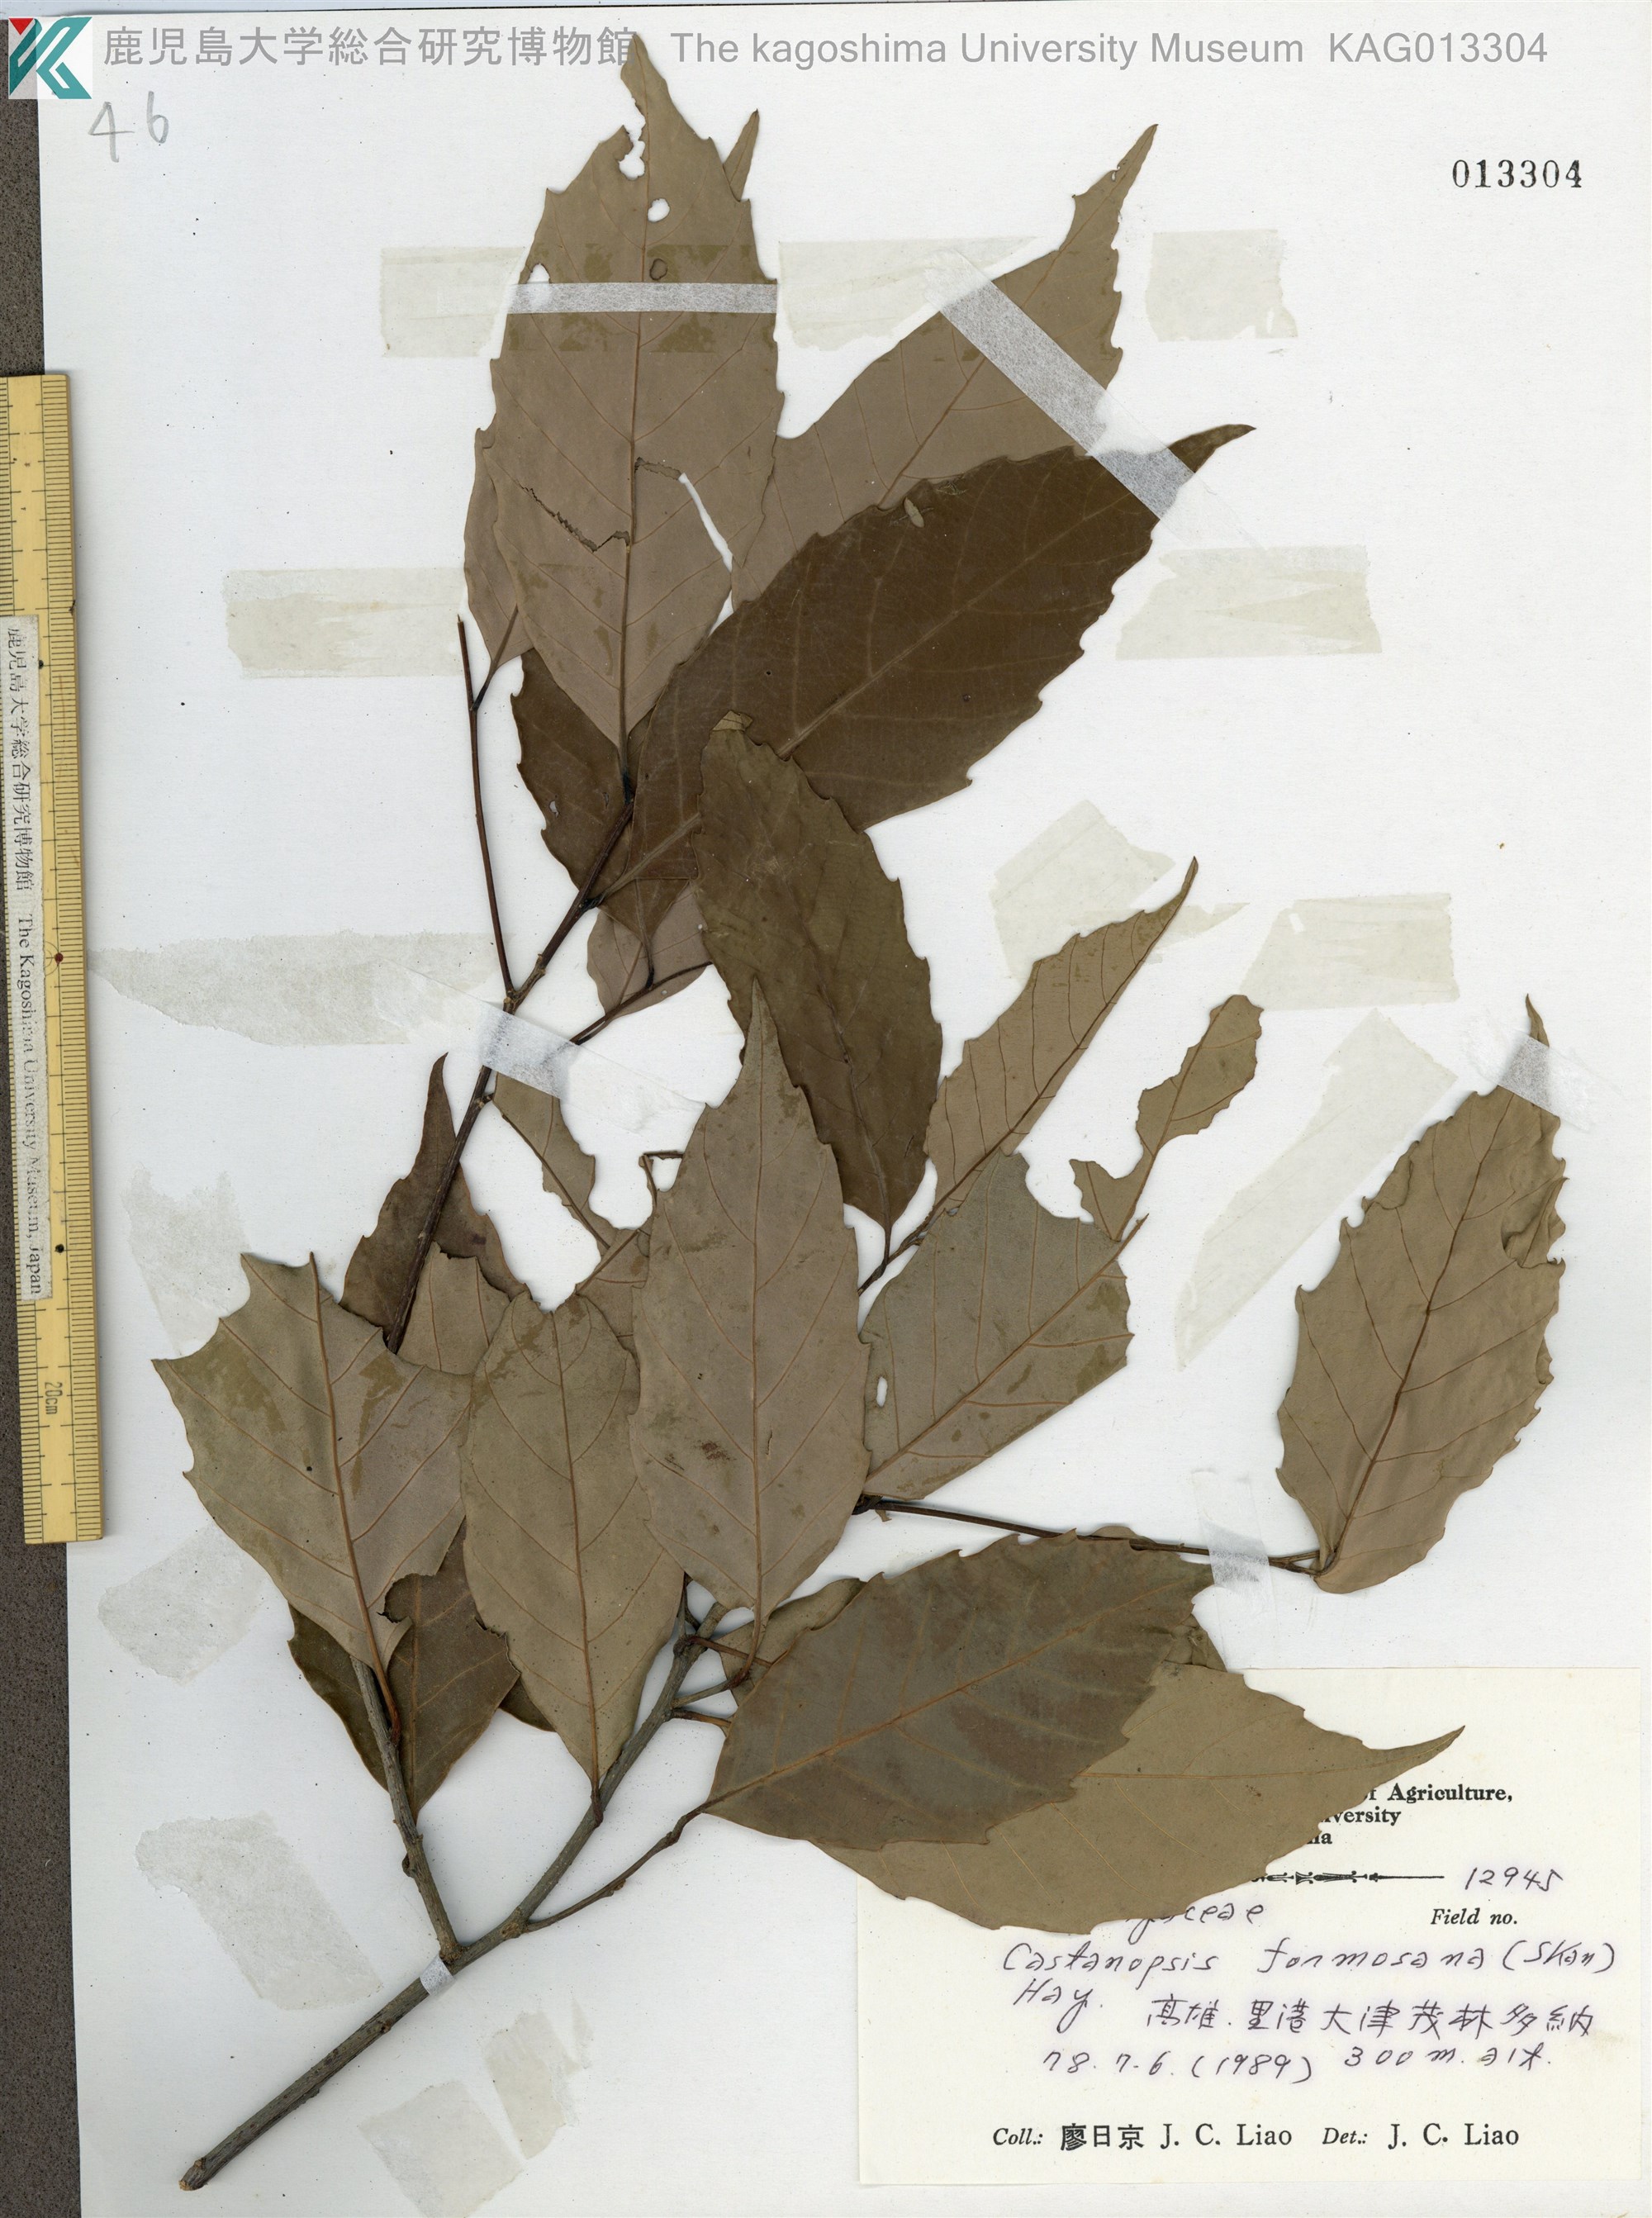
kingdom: Plantae
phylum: Tracheophyta
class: Magnoliopsida
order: Fagales
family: Fagaceae
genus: Castanopsis
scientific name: Castanopsis fissa
